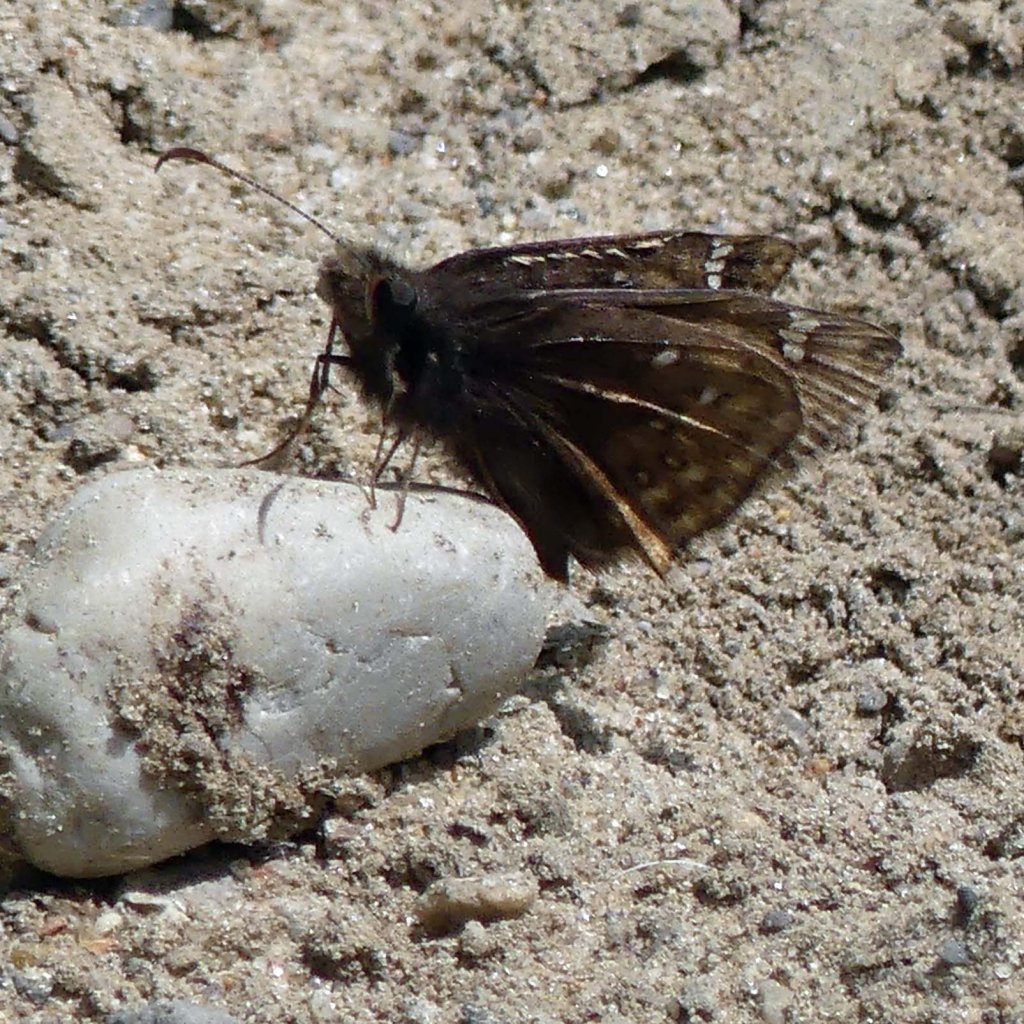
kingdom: Animalia
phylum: Arthropoda
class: Insecta
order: Lepidoptera
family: Hesperiidae
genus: Gesta
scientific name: Gesta
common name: Juvenal's Duskywing
